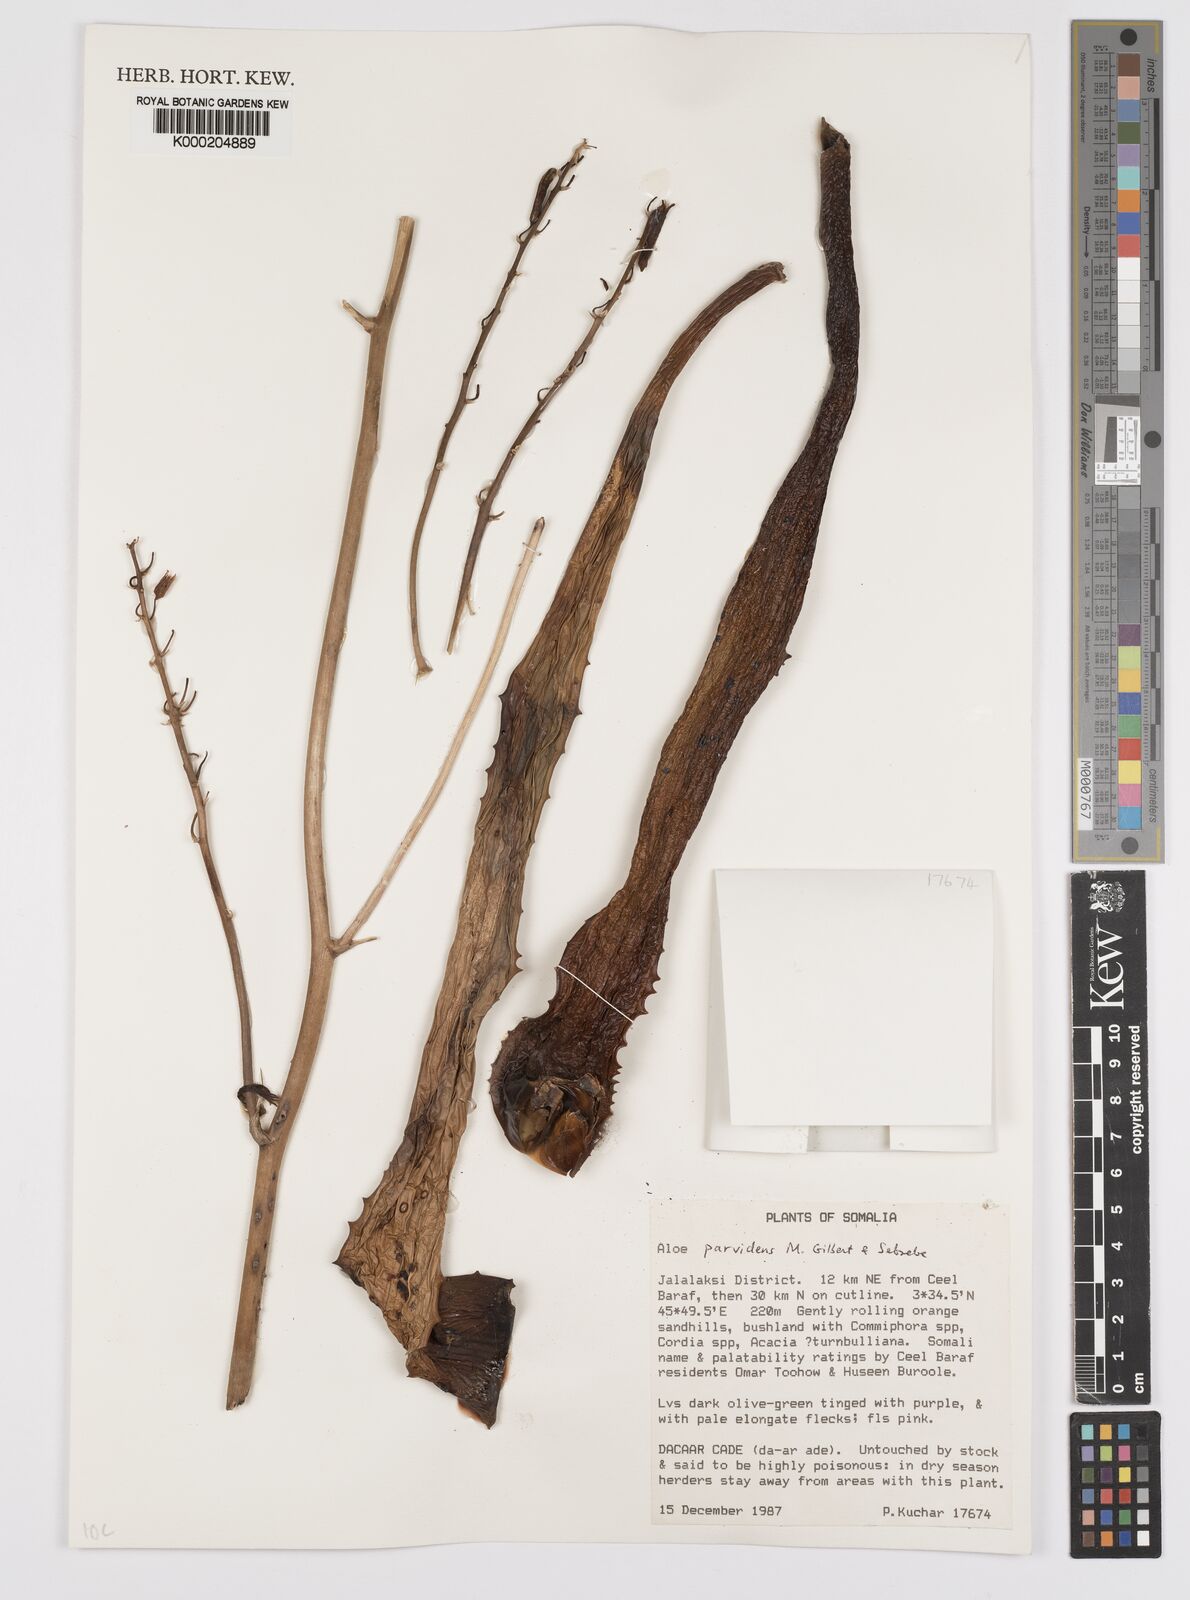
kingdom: Plantae
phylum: Tracheophyta
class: Liliopsida
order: Asparagales
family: Asphodelaceae
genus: Aloe
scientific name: Aloe parvidens
